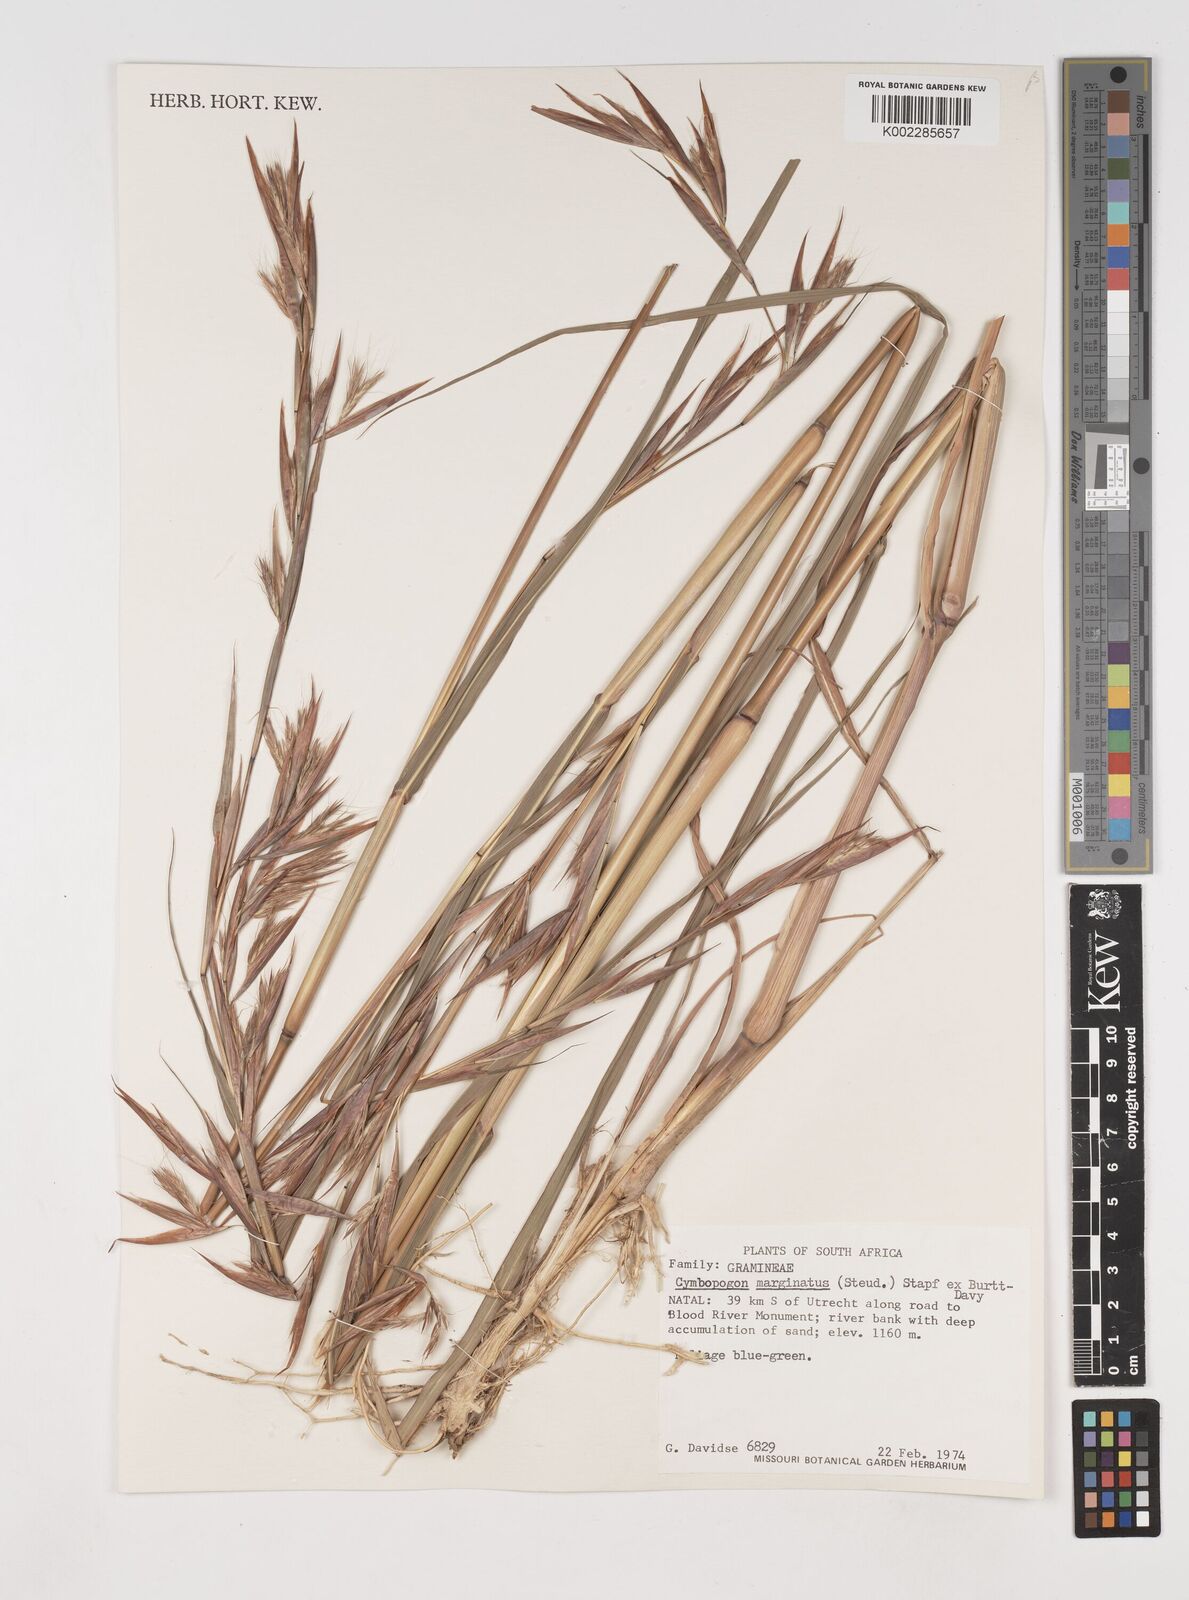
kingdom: Plantae
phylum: Tracheophyta
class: Liliopsida
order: Poales
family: Poaceae
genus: Cymbopogon
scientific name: Cymbopogon marginatus
